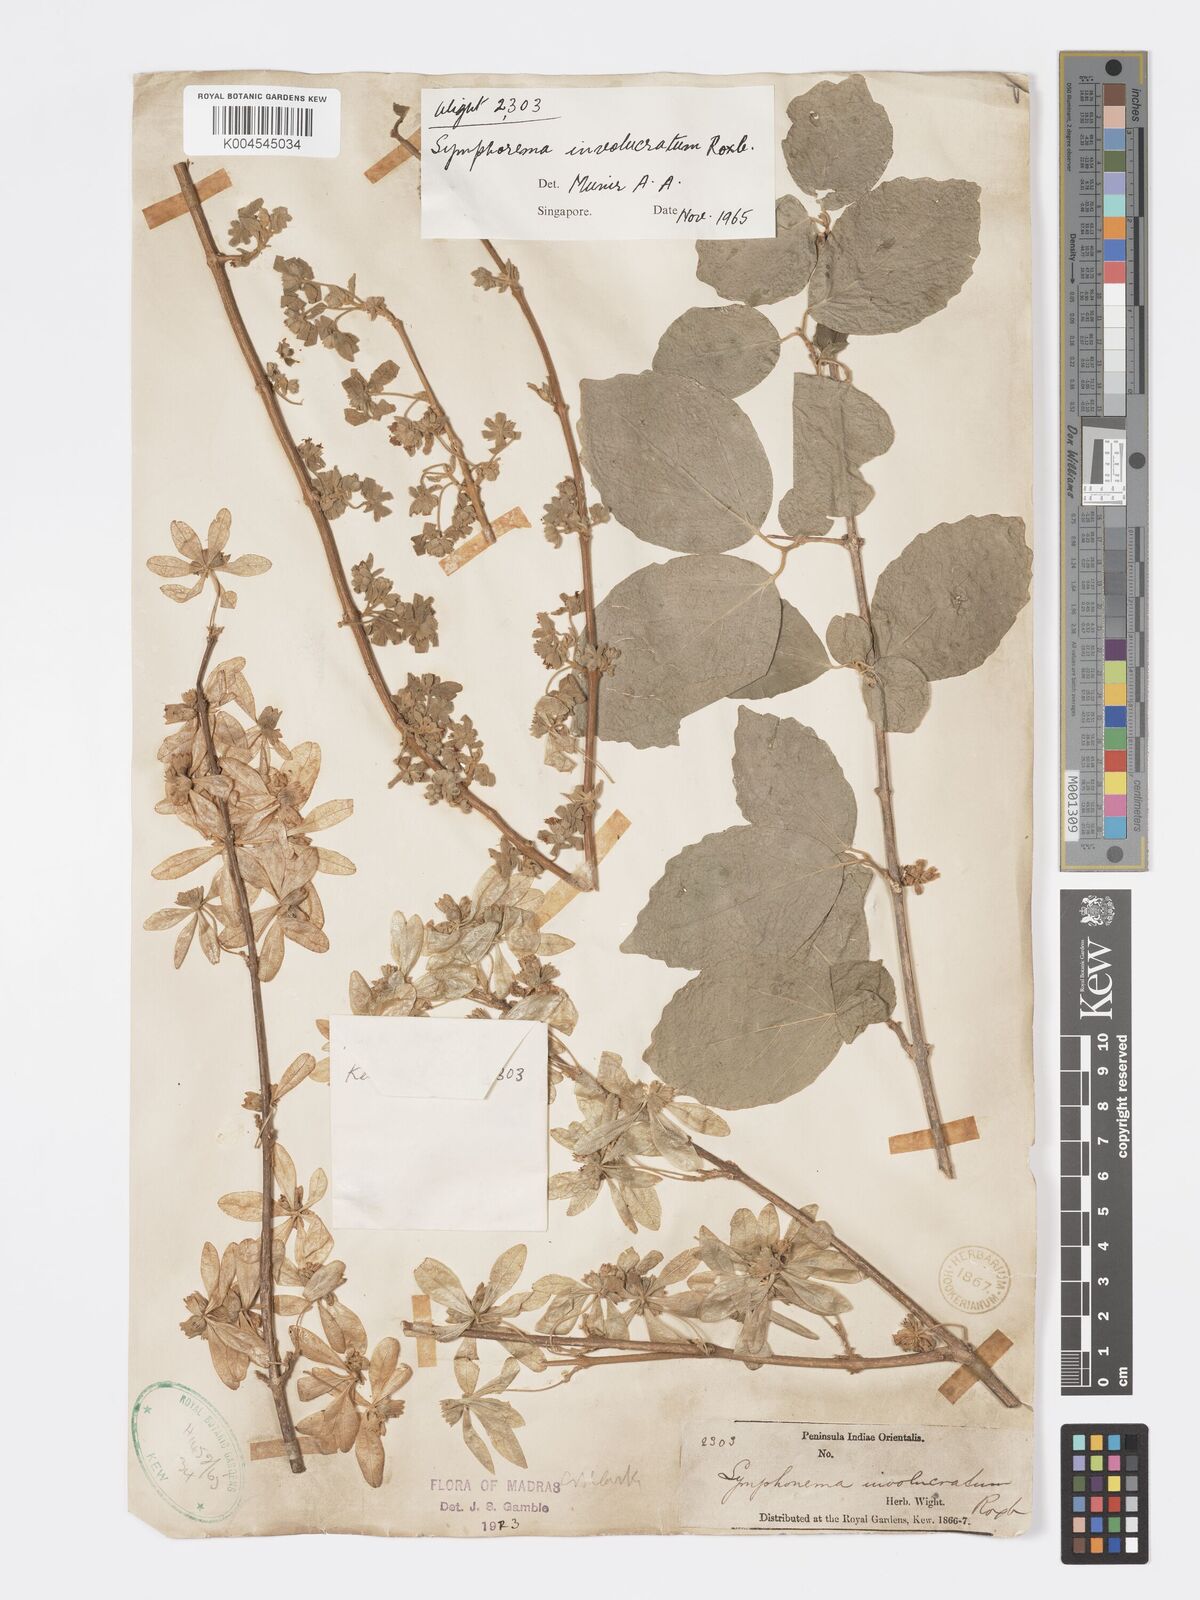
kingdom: Plantae
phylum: Tracheophyta
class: Magnoliopsida
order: Lamiales
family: Lamiaceae
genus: Symphorema
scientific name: Symphorema involucratum
